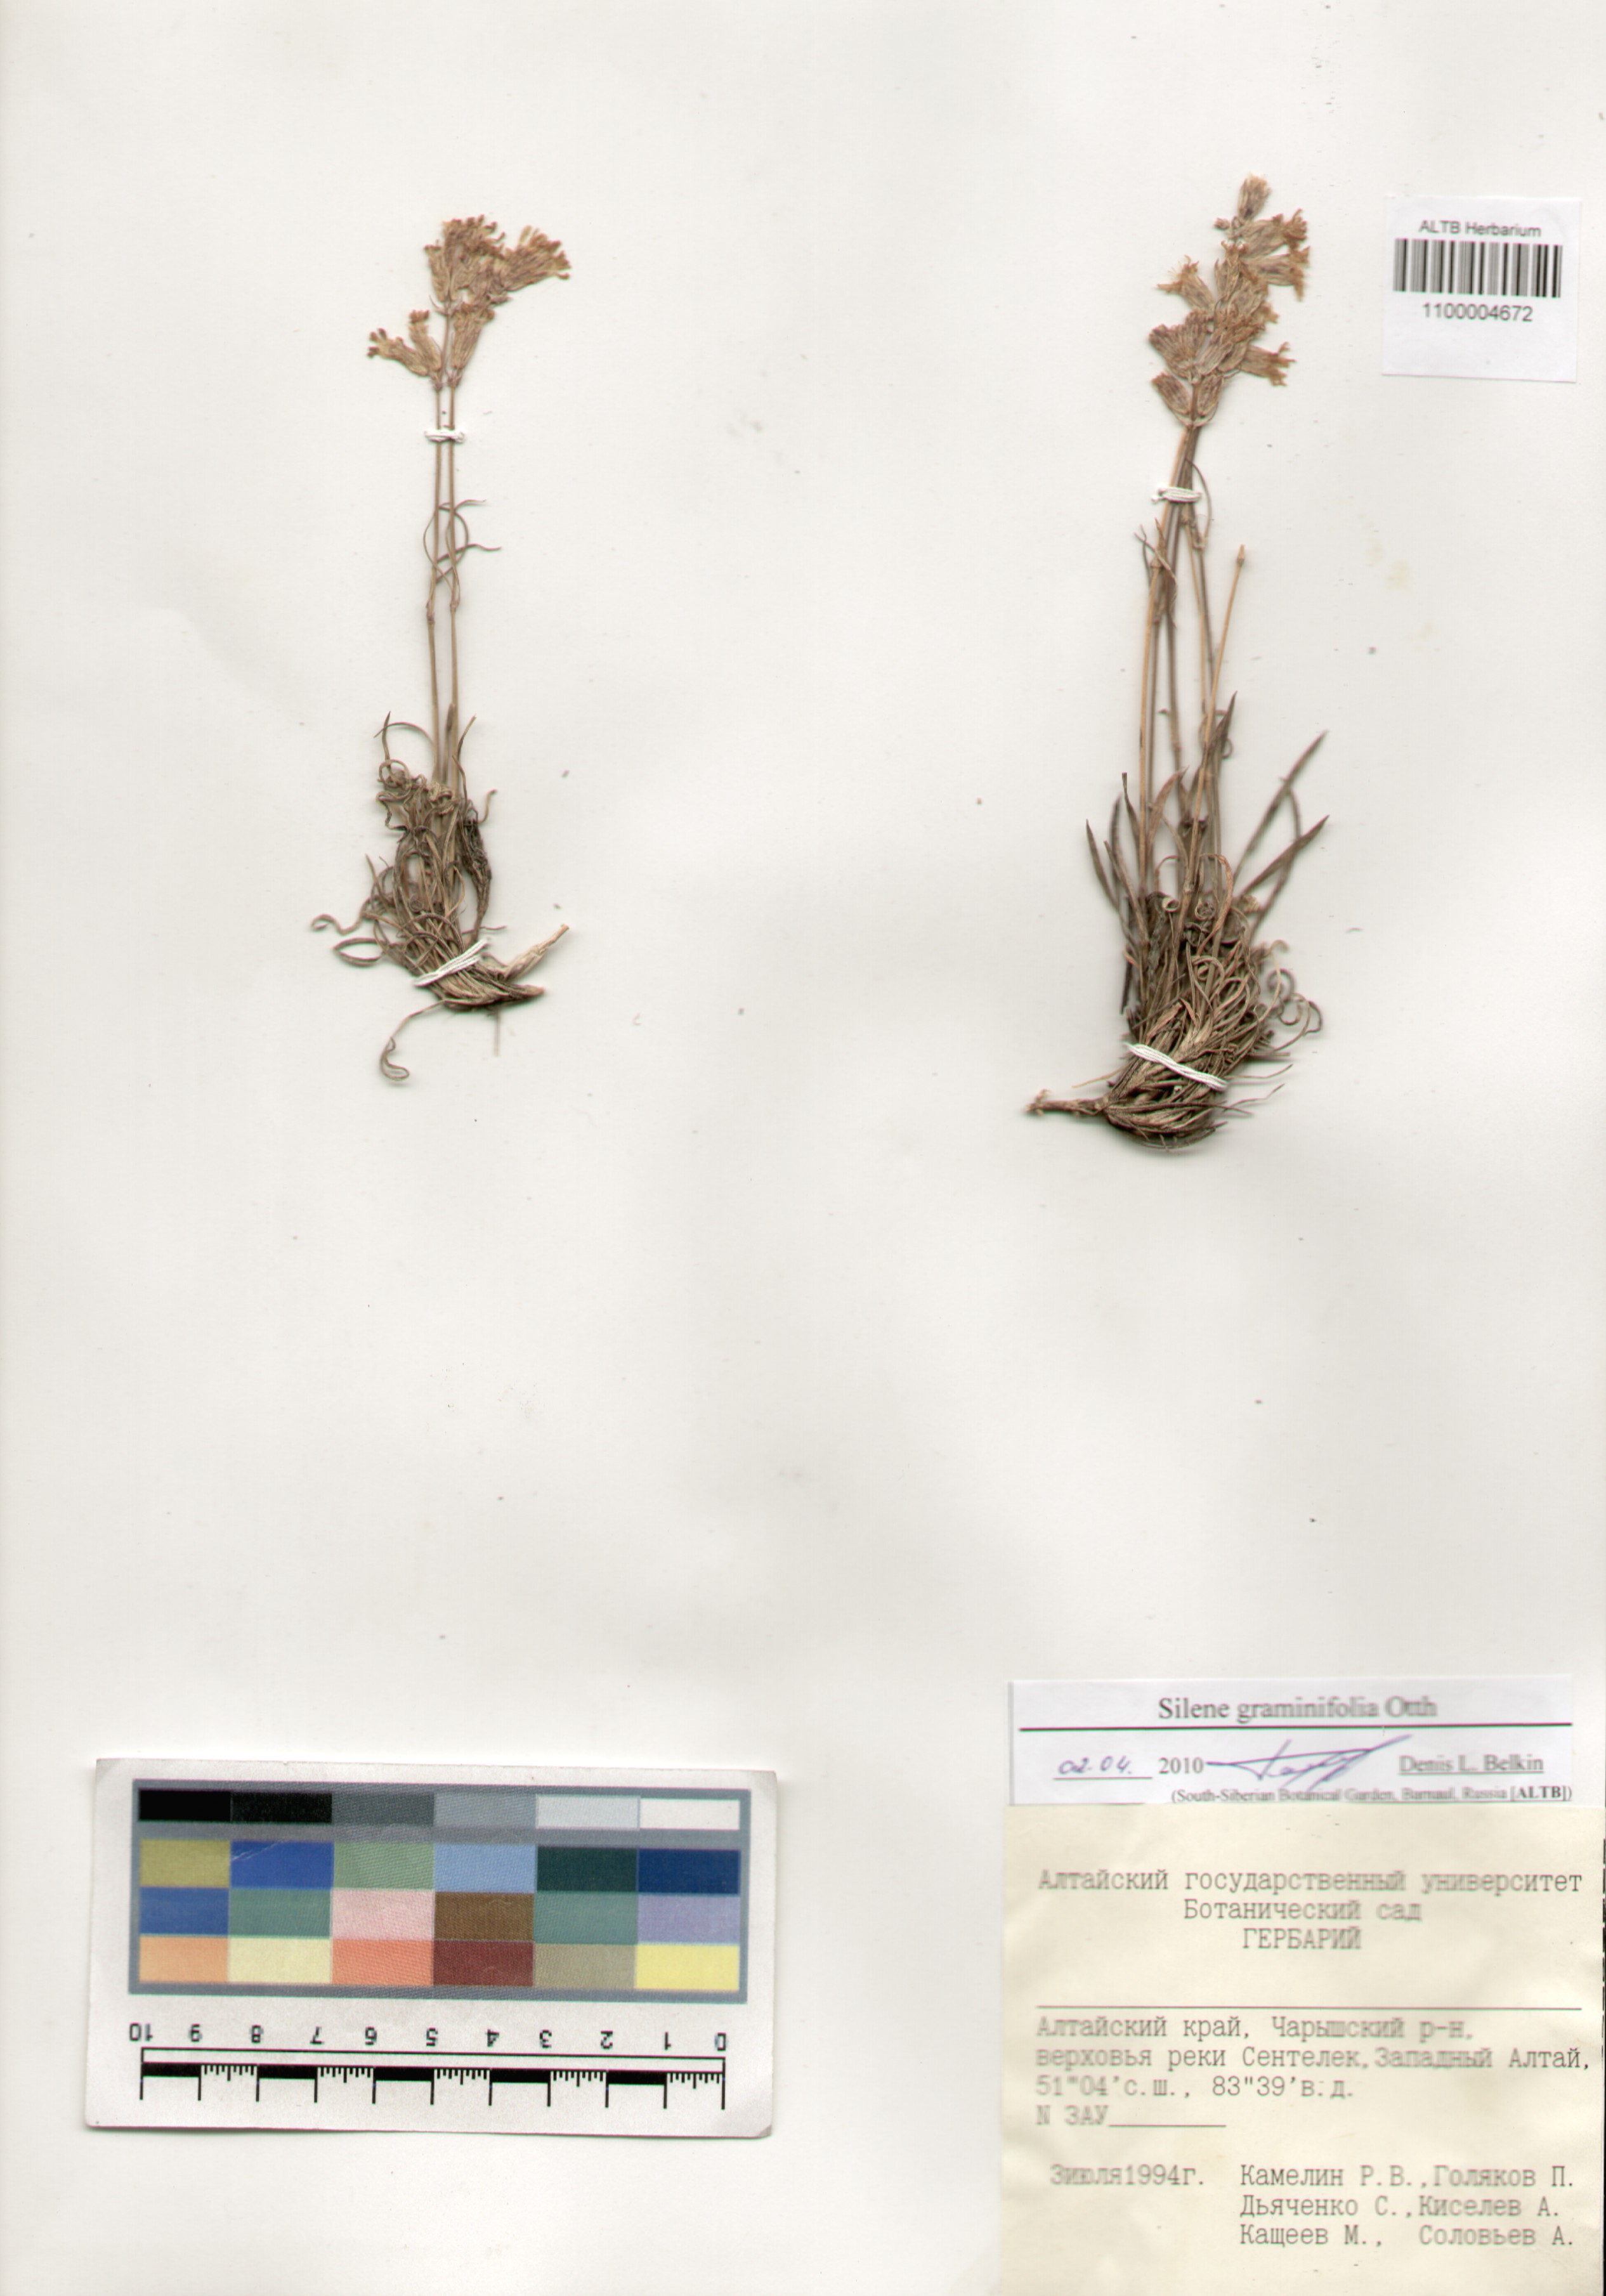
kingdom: Plantae
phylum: Tracheophyta
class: Magnoliopsida
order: Caryophyllales
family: Caryophyllaceae
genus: Silene
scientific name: Silene graminifolia
